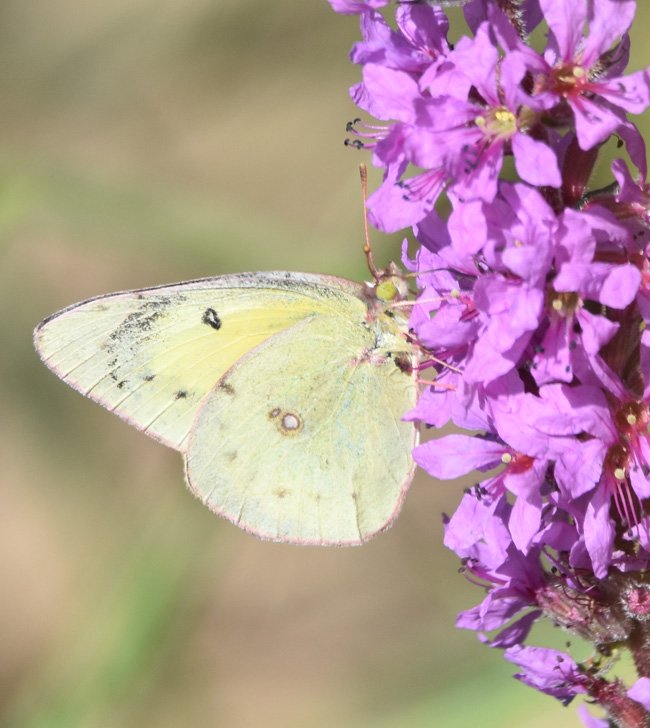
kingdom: Animalia
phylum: Arthropoda
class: Insecta
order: Lepidoptera
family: Pieridae
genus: Colias
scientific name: Colias eurytheme
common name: Orange Sulphur
